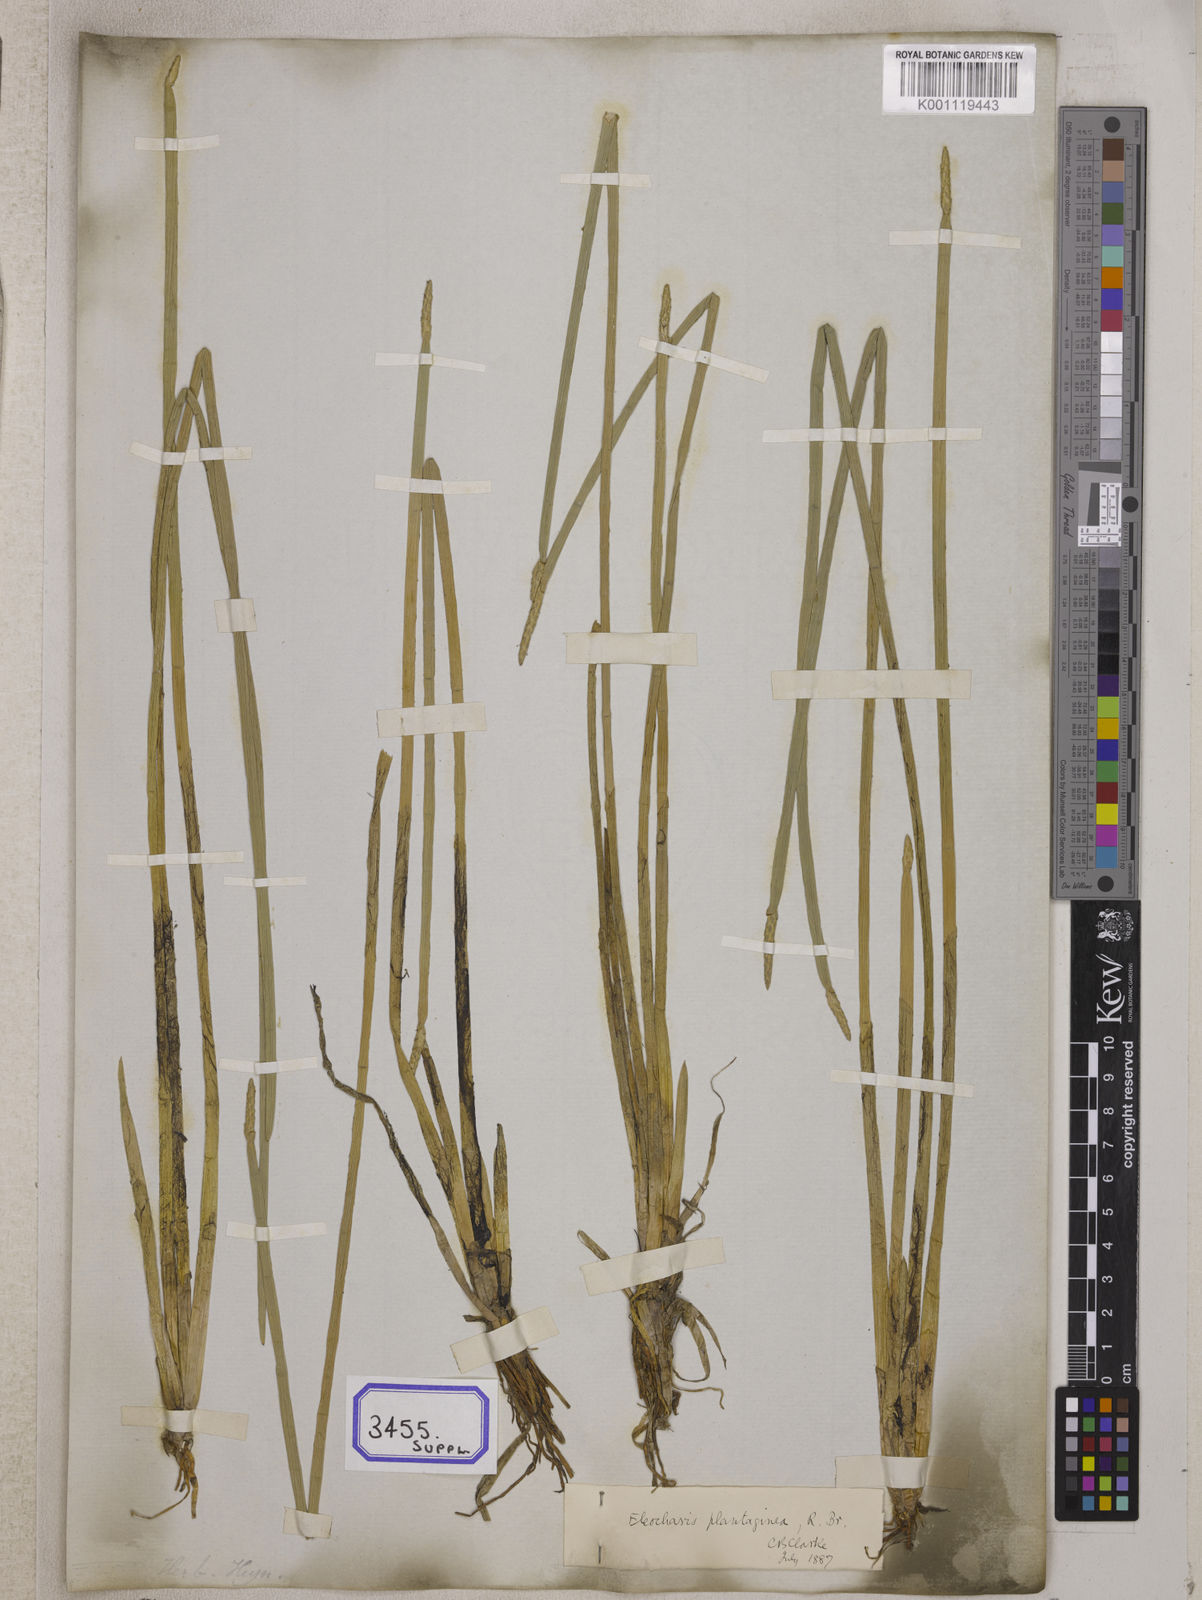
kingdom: Plantae
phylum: Tracheophyta
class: Liliopsida
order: Poales
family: Cyperaceae
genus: Eleocharis
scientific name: Eleocharis
